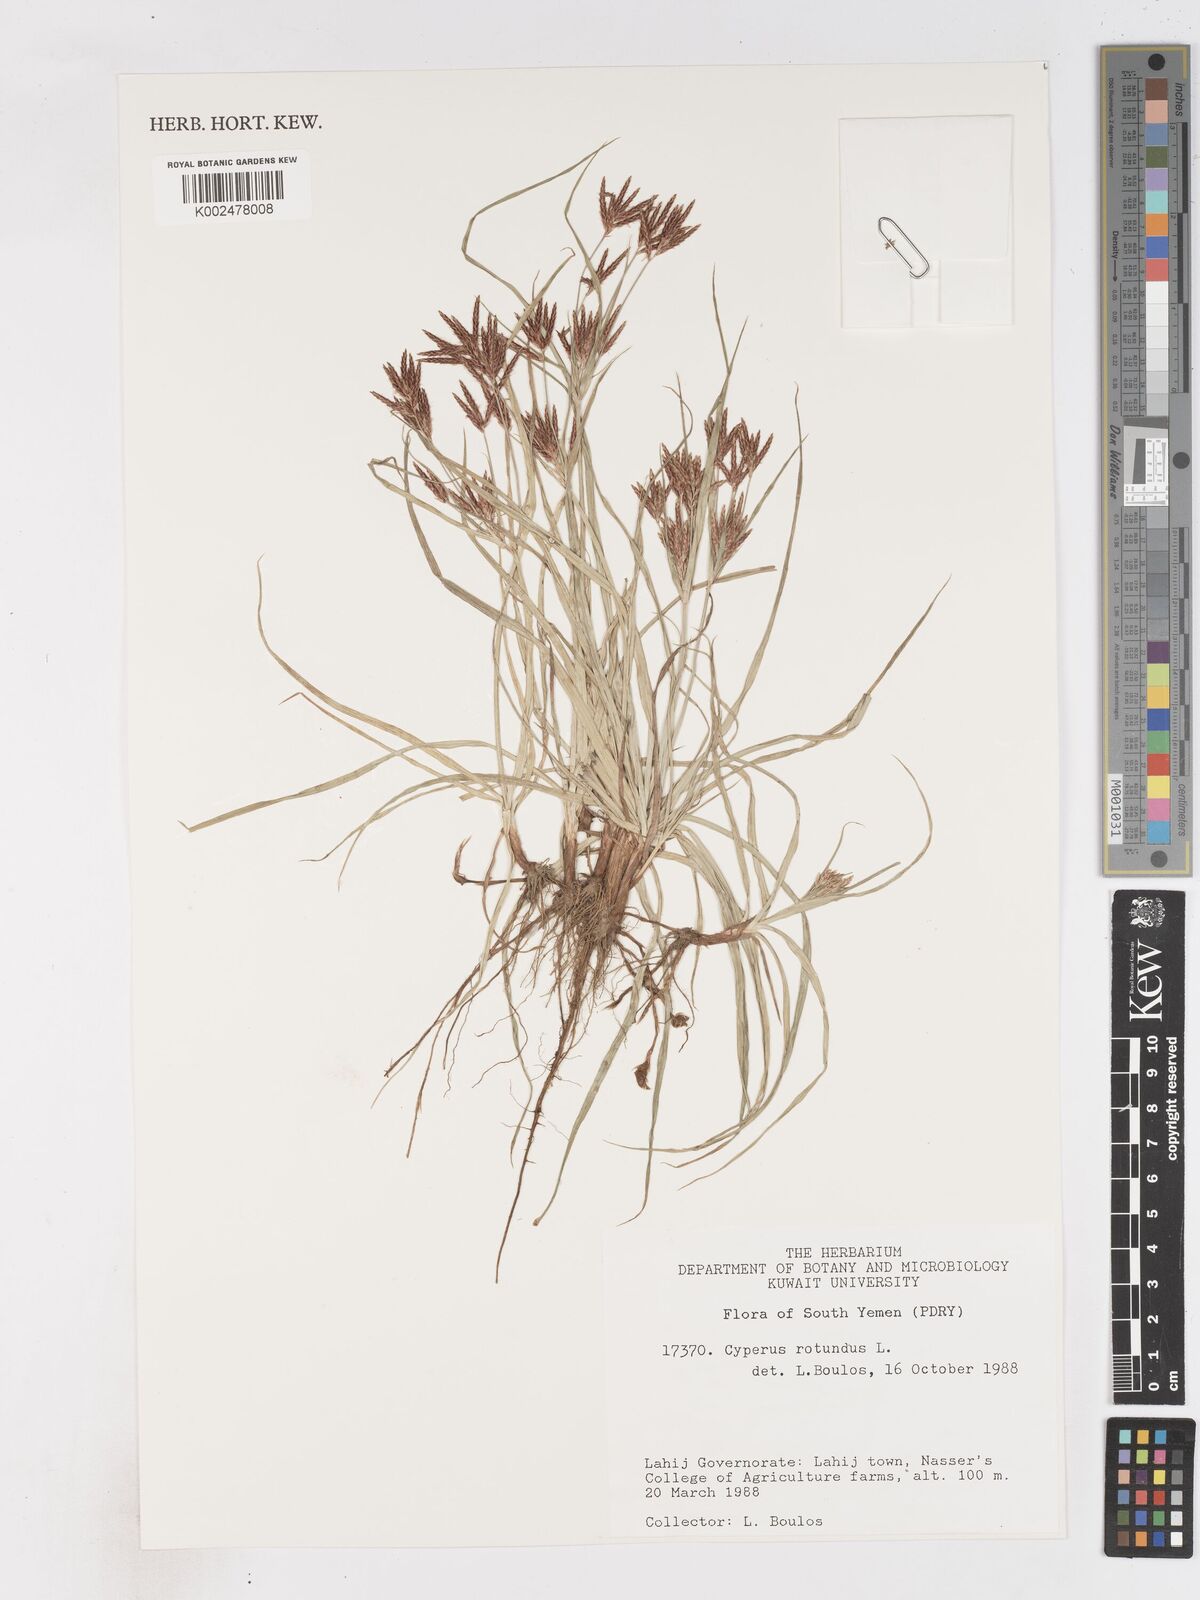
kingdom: Plantae
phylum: Tracheophyta
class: Liliopsida
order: Poales
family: Cyperaceae
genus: Cyperus
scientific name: Cyperus rotundus
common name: Nutgrass
